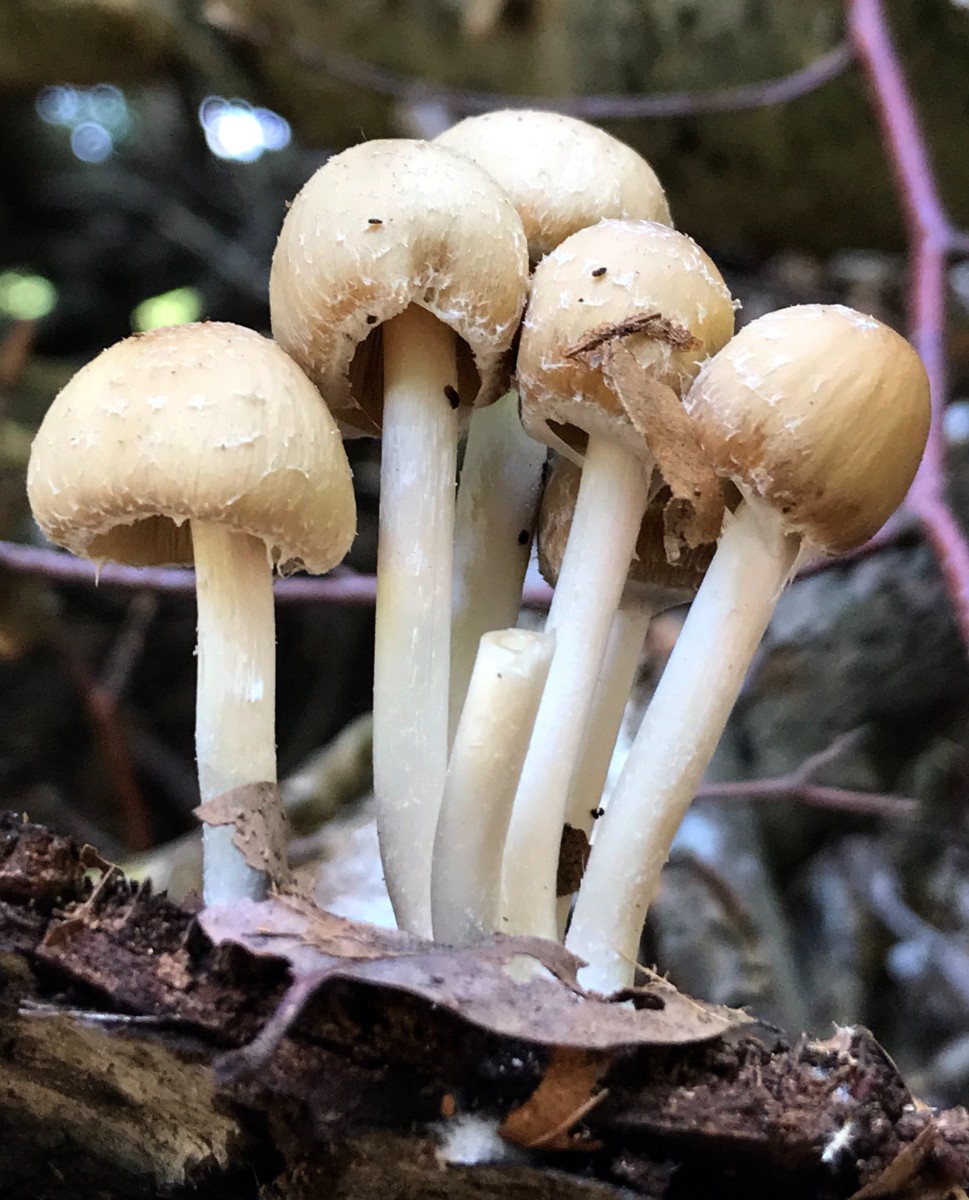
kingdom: Fungi
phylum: Basidiomycota
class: Agaricomycetes
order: Agaricales
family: Psathyrellaceae
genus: Candolleomyces
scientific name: Candolleomyces candolleanus
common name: Candolles mørkhat
